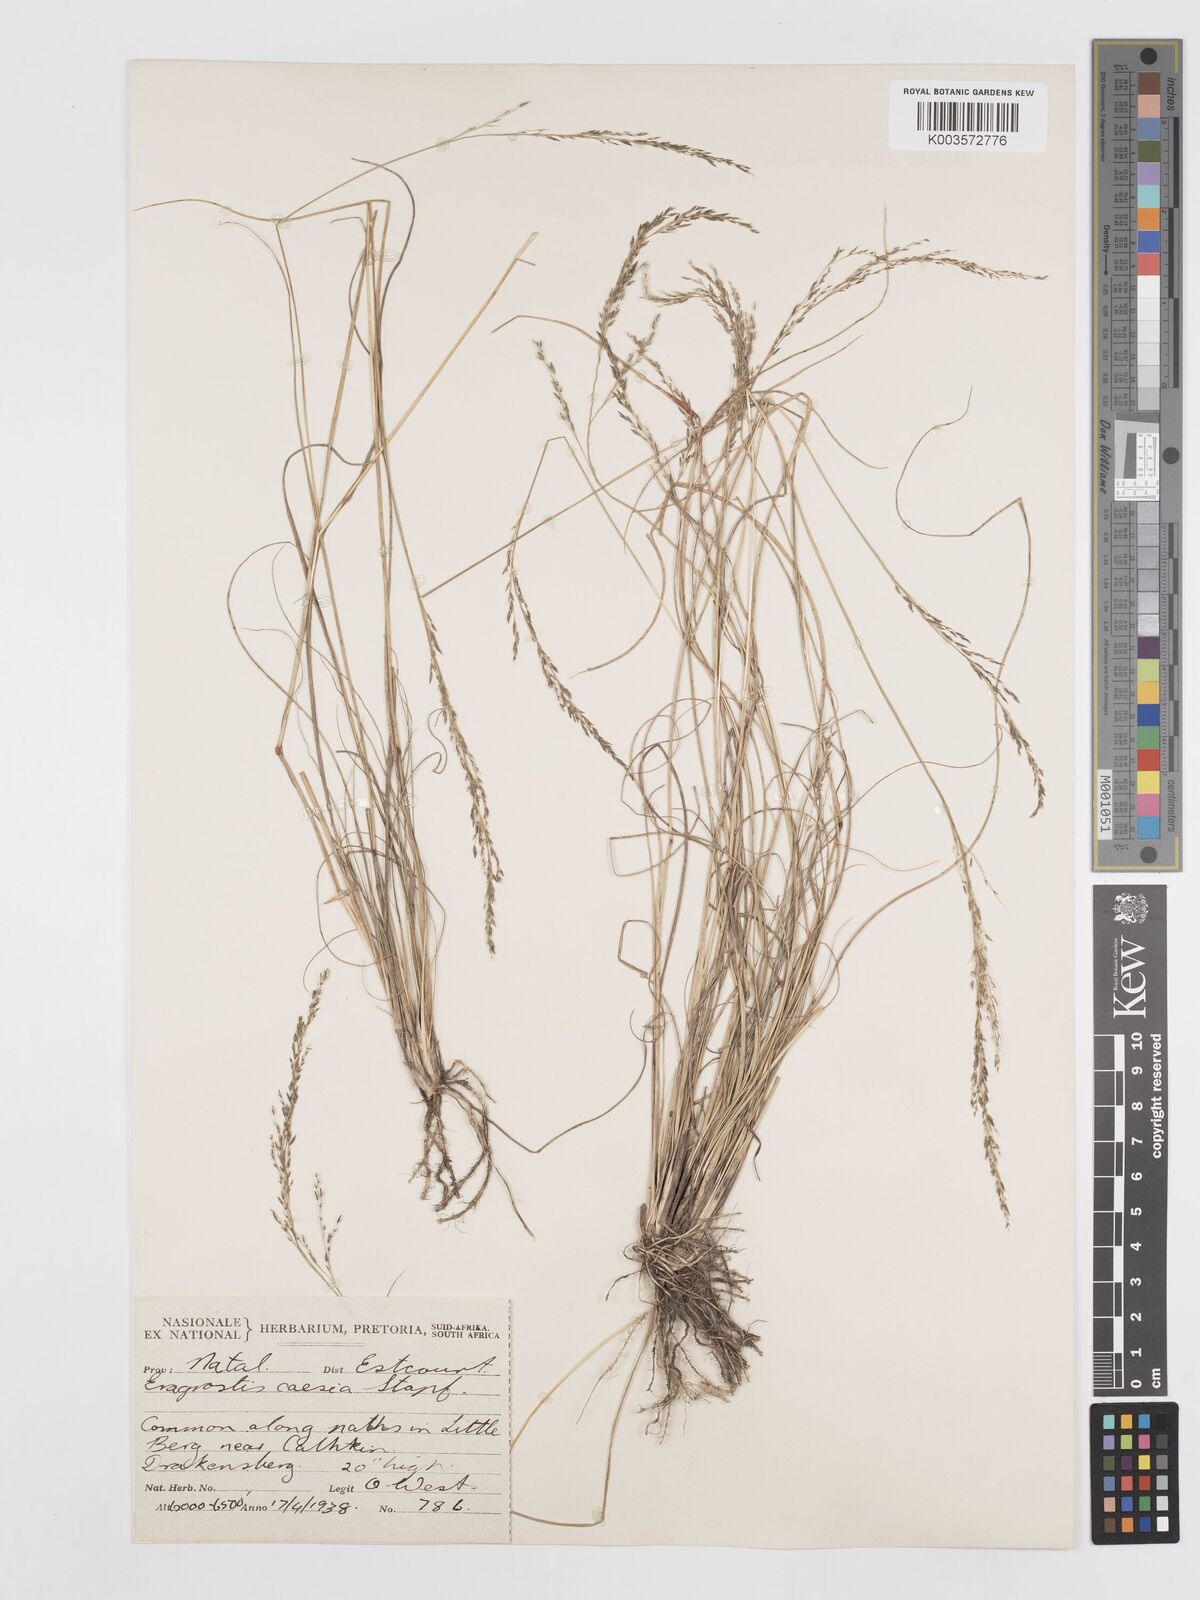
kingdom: Plantae
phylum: Tracheophyta
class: Liliopsida
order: Poales
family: Poaceae
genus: Eragrostis
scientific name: Eragrostis caesia
